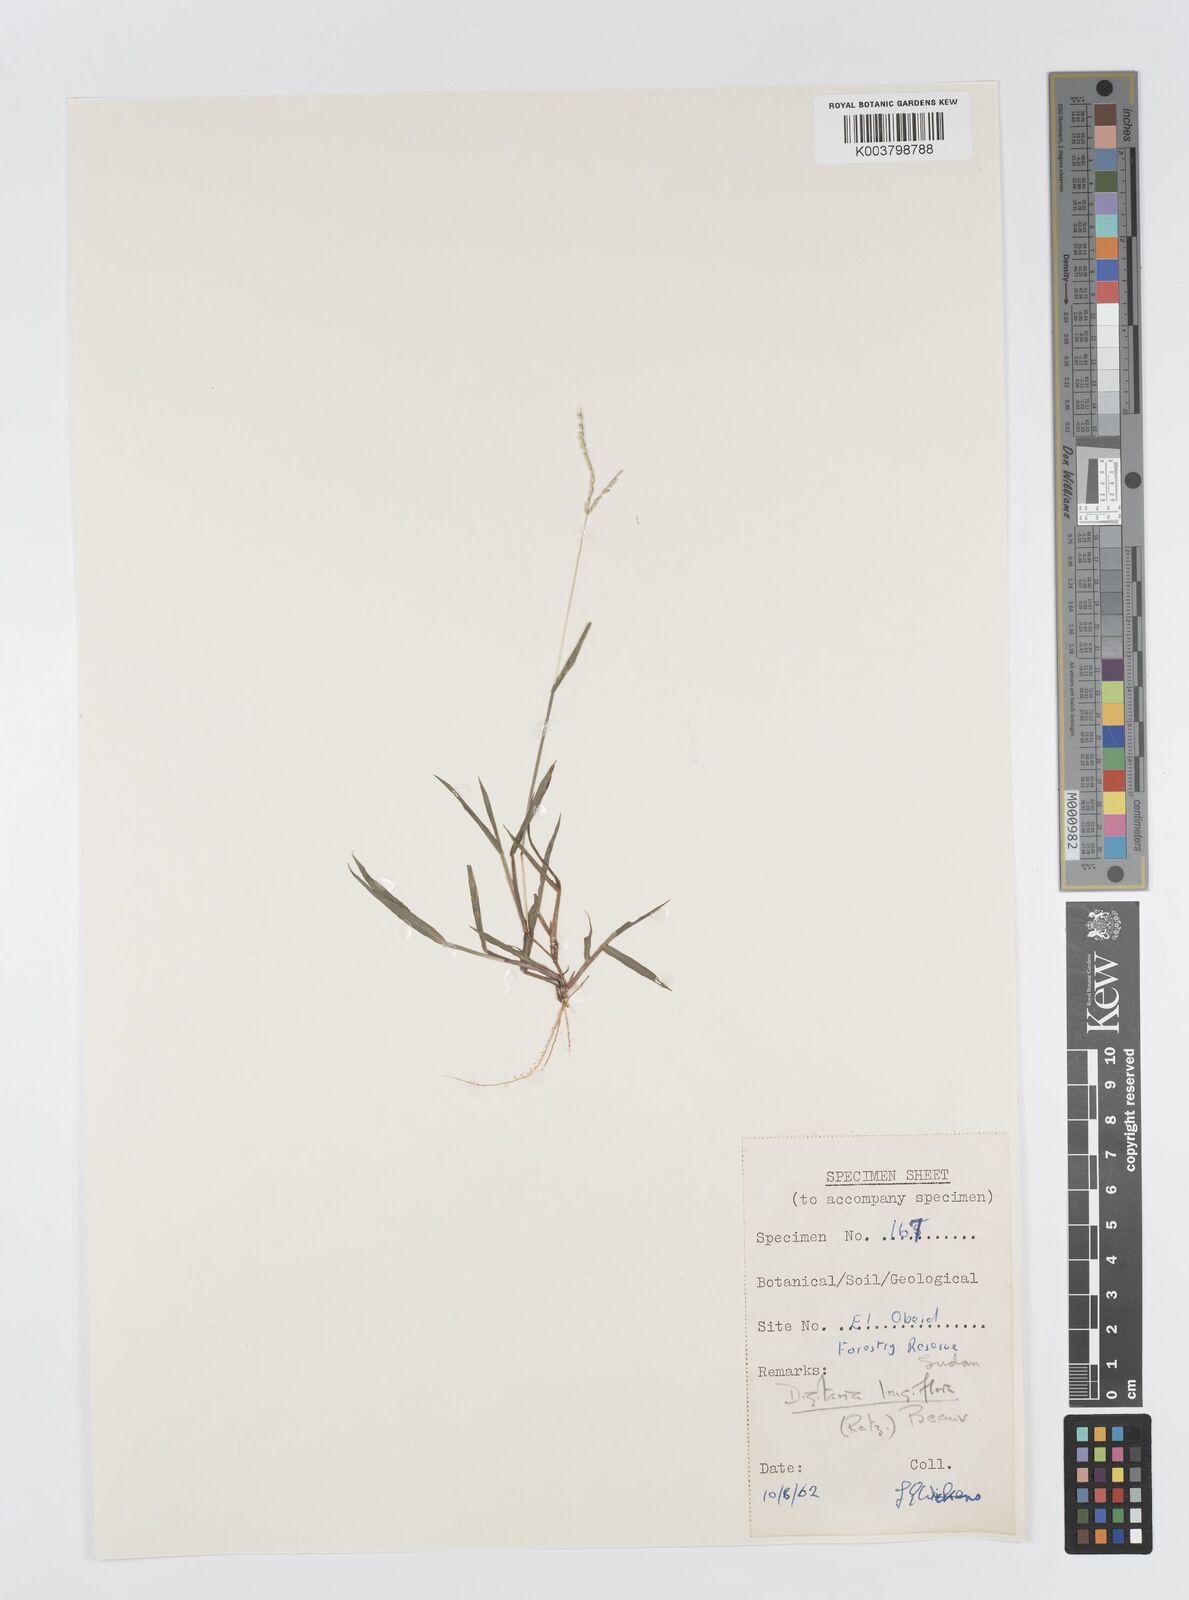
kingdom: Plantae
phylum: Tracheophyta
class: Liliopsida
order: Poales
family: Poaceae
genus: Digitaria
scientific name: Digitaria longiflora
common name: Wire crabgrass
